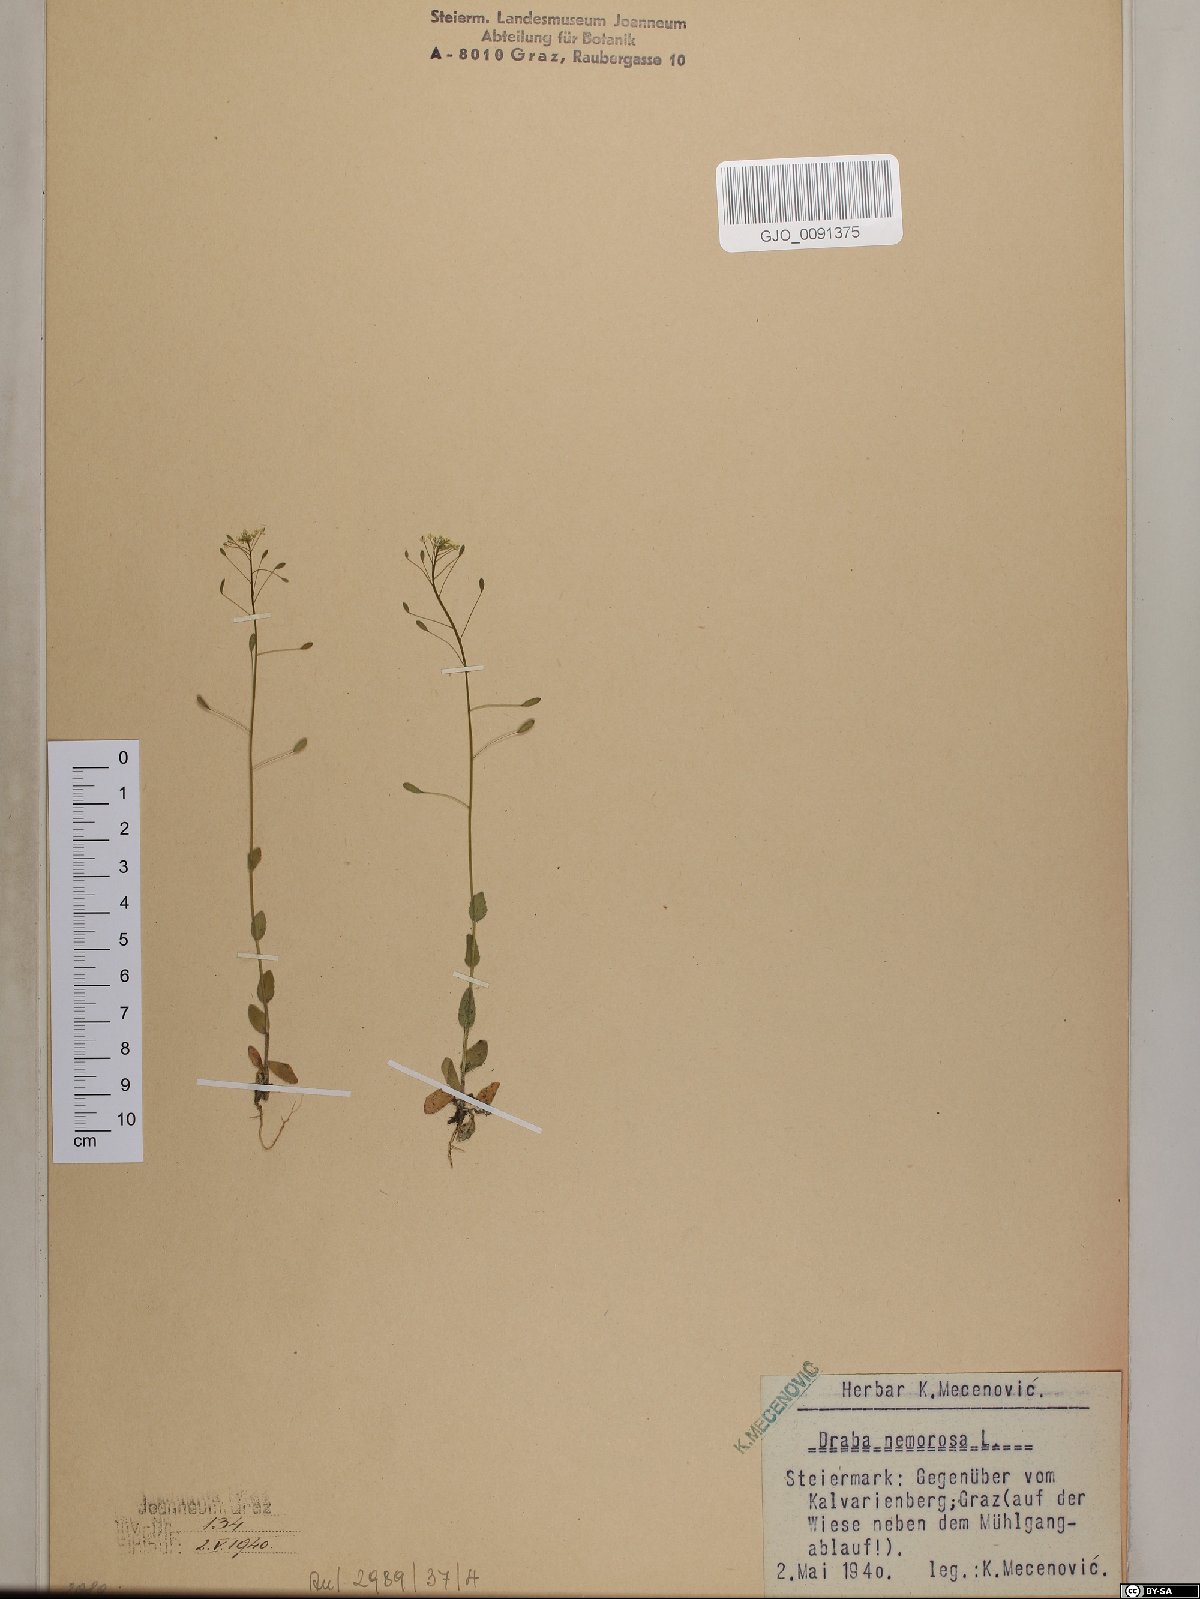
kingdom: Plantae
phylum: Tracheophyta
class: Magnoliopsida
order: Brassicales
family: Brassicaceae
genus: Draba
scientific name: Draba nemorosa
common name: Wood whitlow-grass
